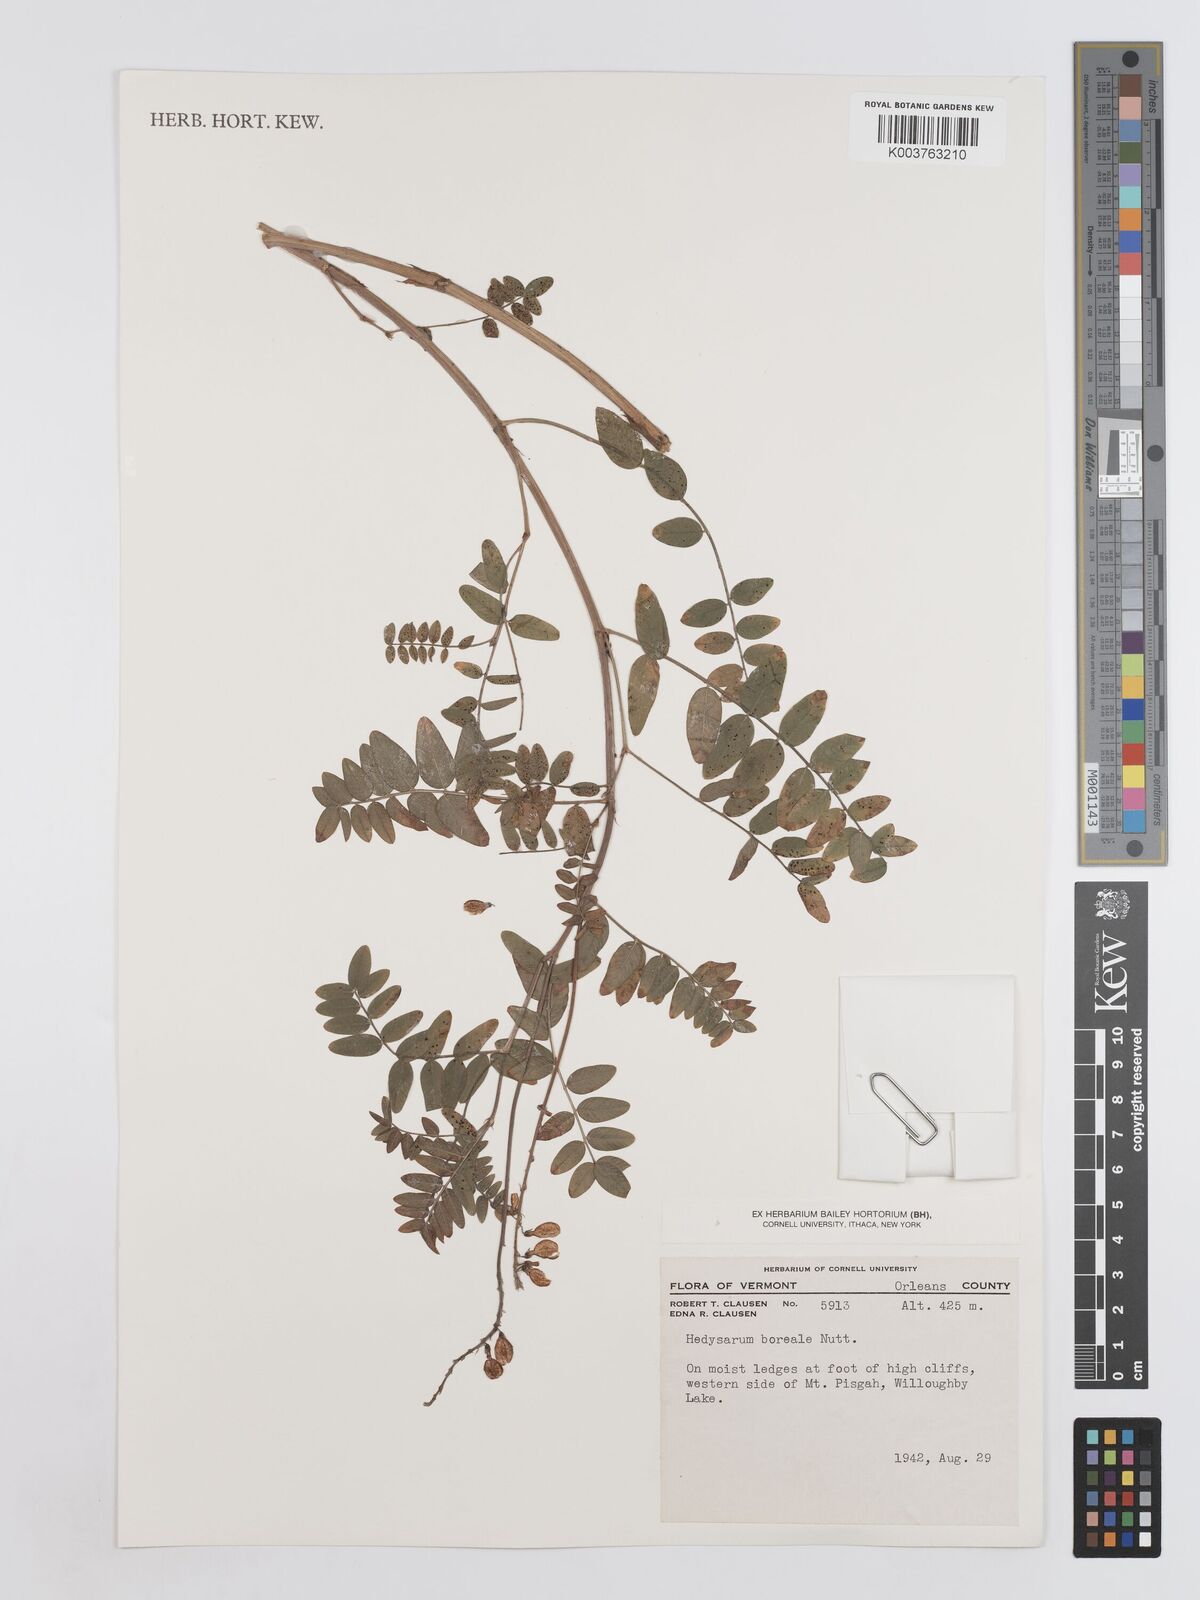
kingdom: Plantae
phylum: Tracheophyta
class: Magnoliopsida
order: Fabales
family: Fabaceae
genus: Hedysarum
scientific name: Hedysarum boreale
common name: Northern sweet-vetch
